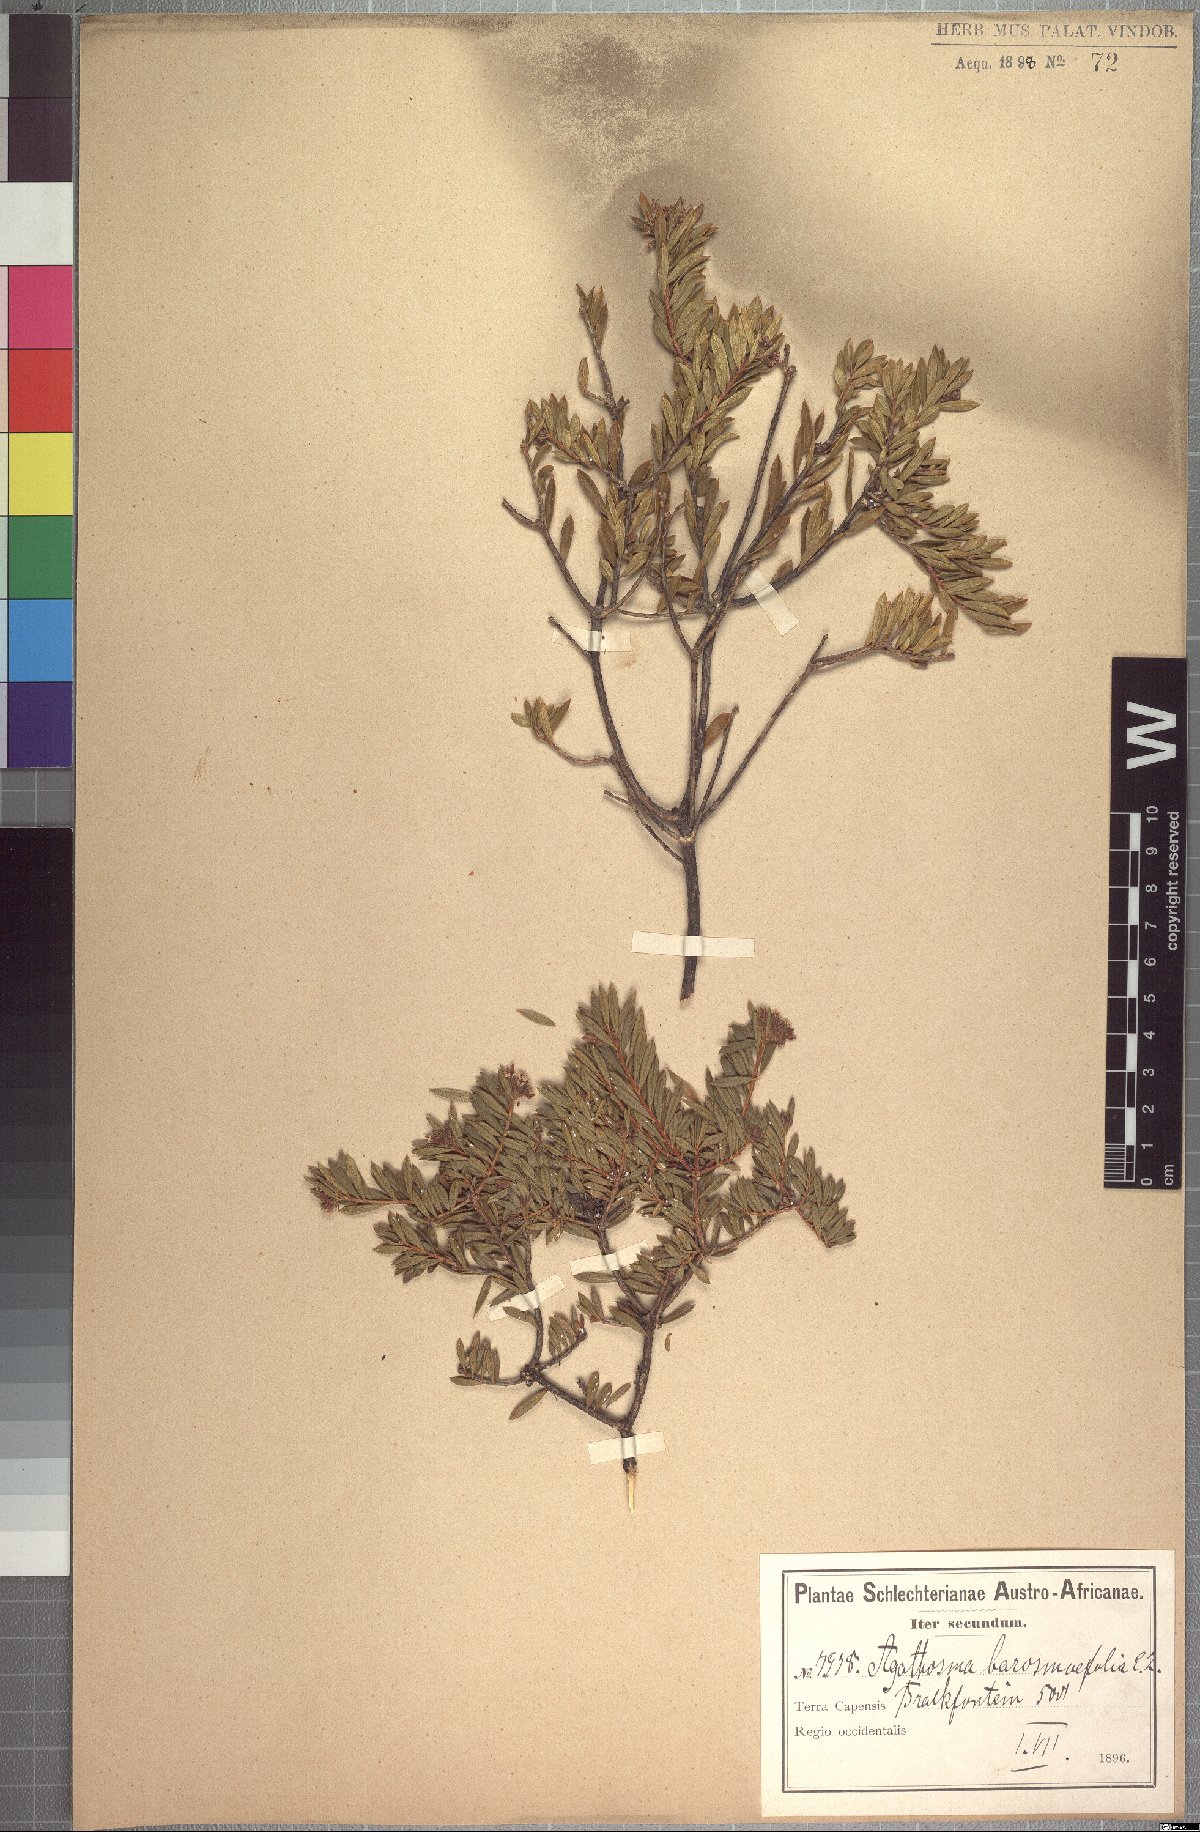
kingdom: Plantae
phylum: Tracheophyta
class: Magnoliopsida
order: Sapindales
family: Rutaceae
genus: Agathosma
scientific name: Agathosma bisulca
